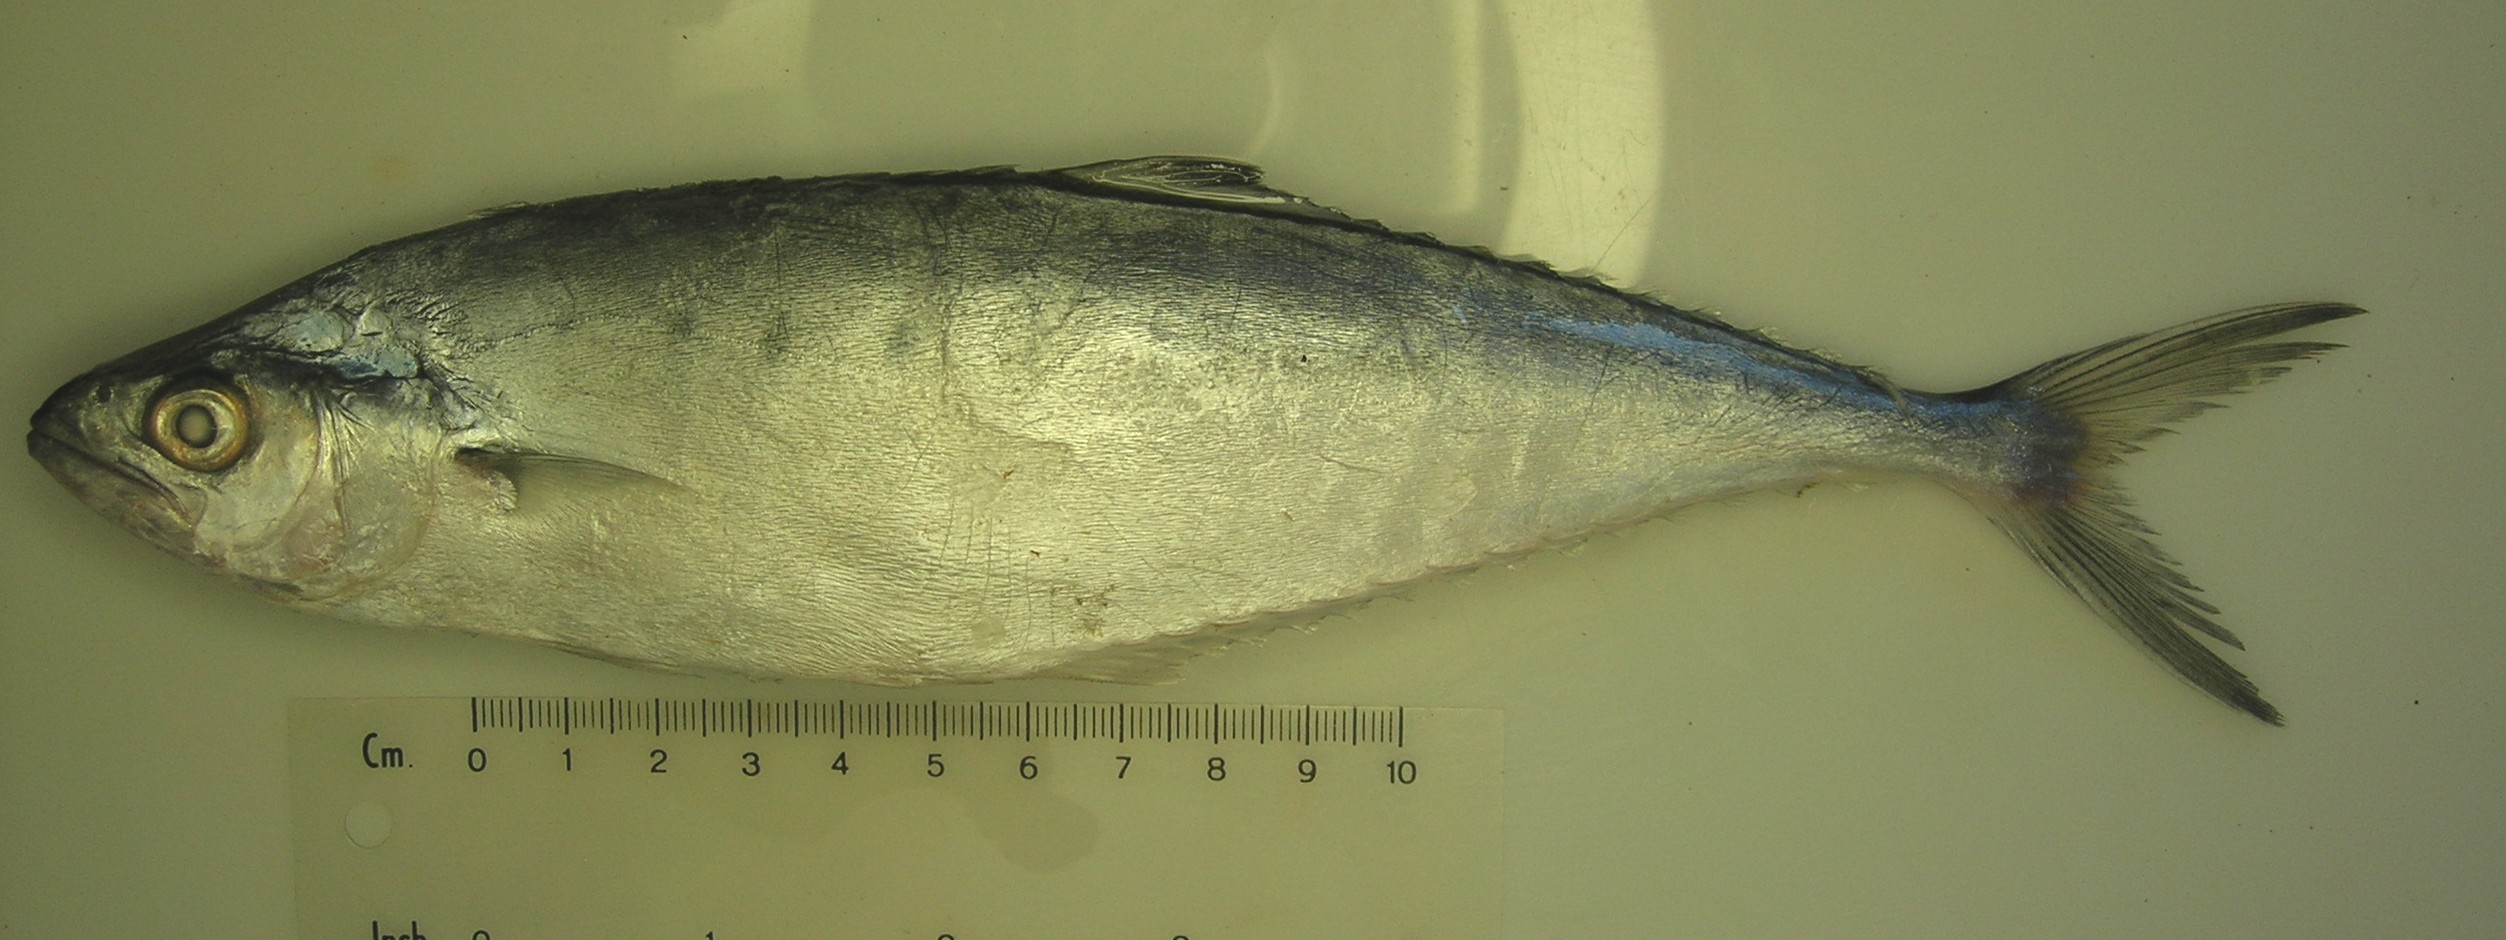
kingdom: Animalia
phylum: Chordata
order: Perciformes
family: Carangidae
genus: Scomberoides
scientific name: Scomberoides tol
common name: Needlescaled queenfish
